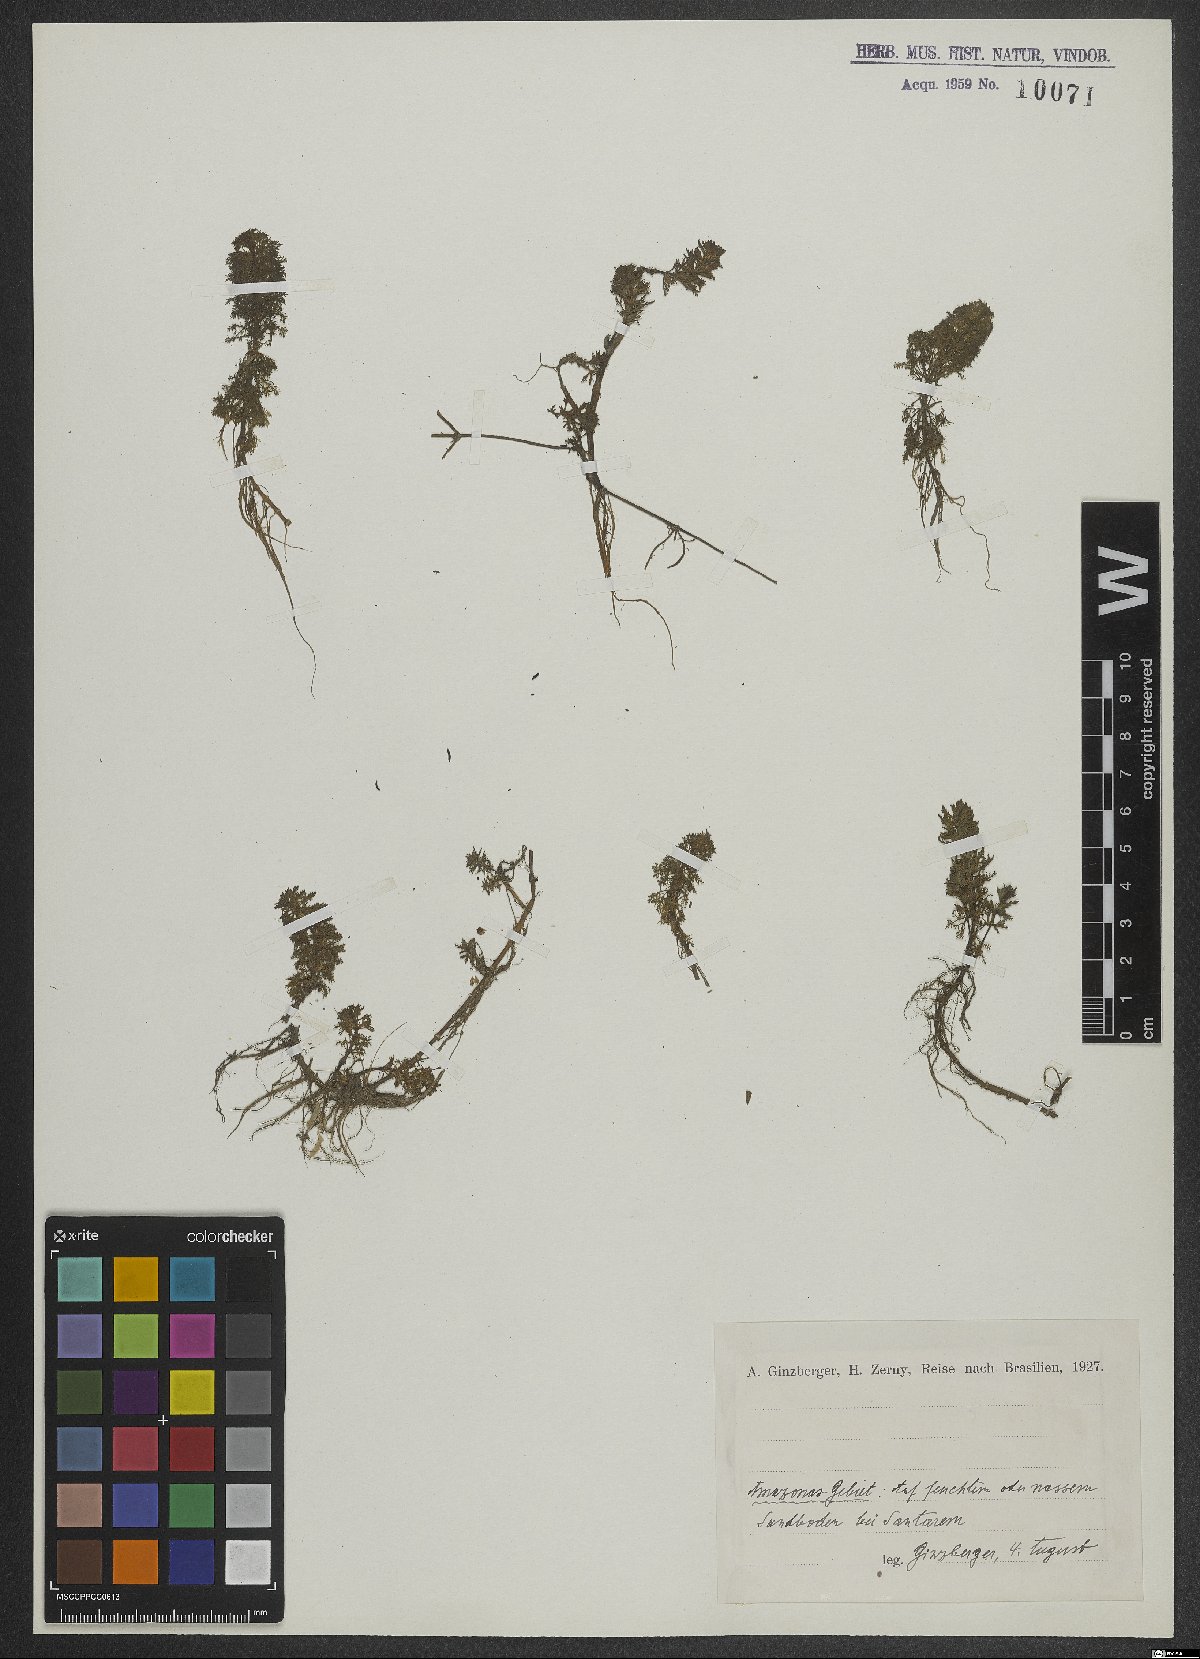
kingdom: Plantae
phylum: Tracheophyta
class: Magnoliopsida
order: Lamiales
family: Scrophulariaceae
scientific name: Scrophulariaceae
